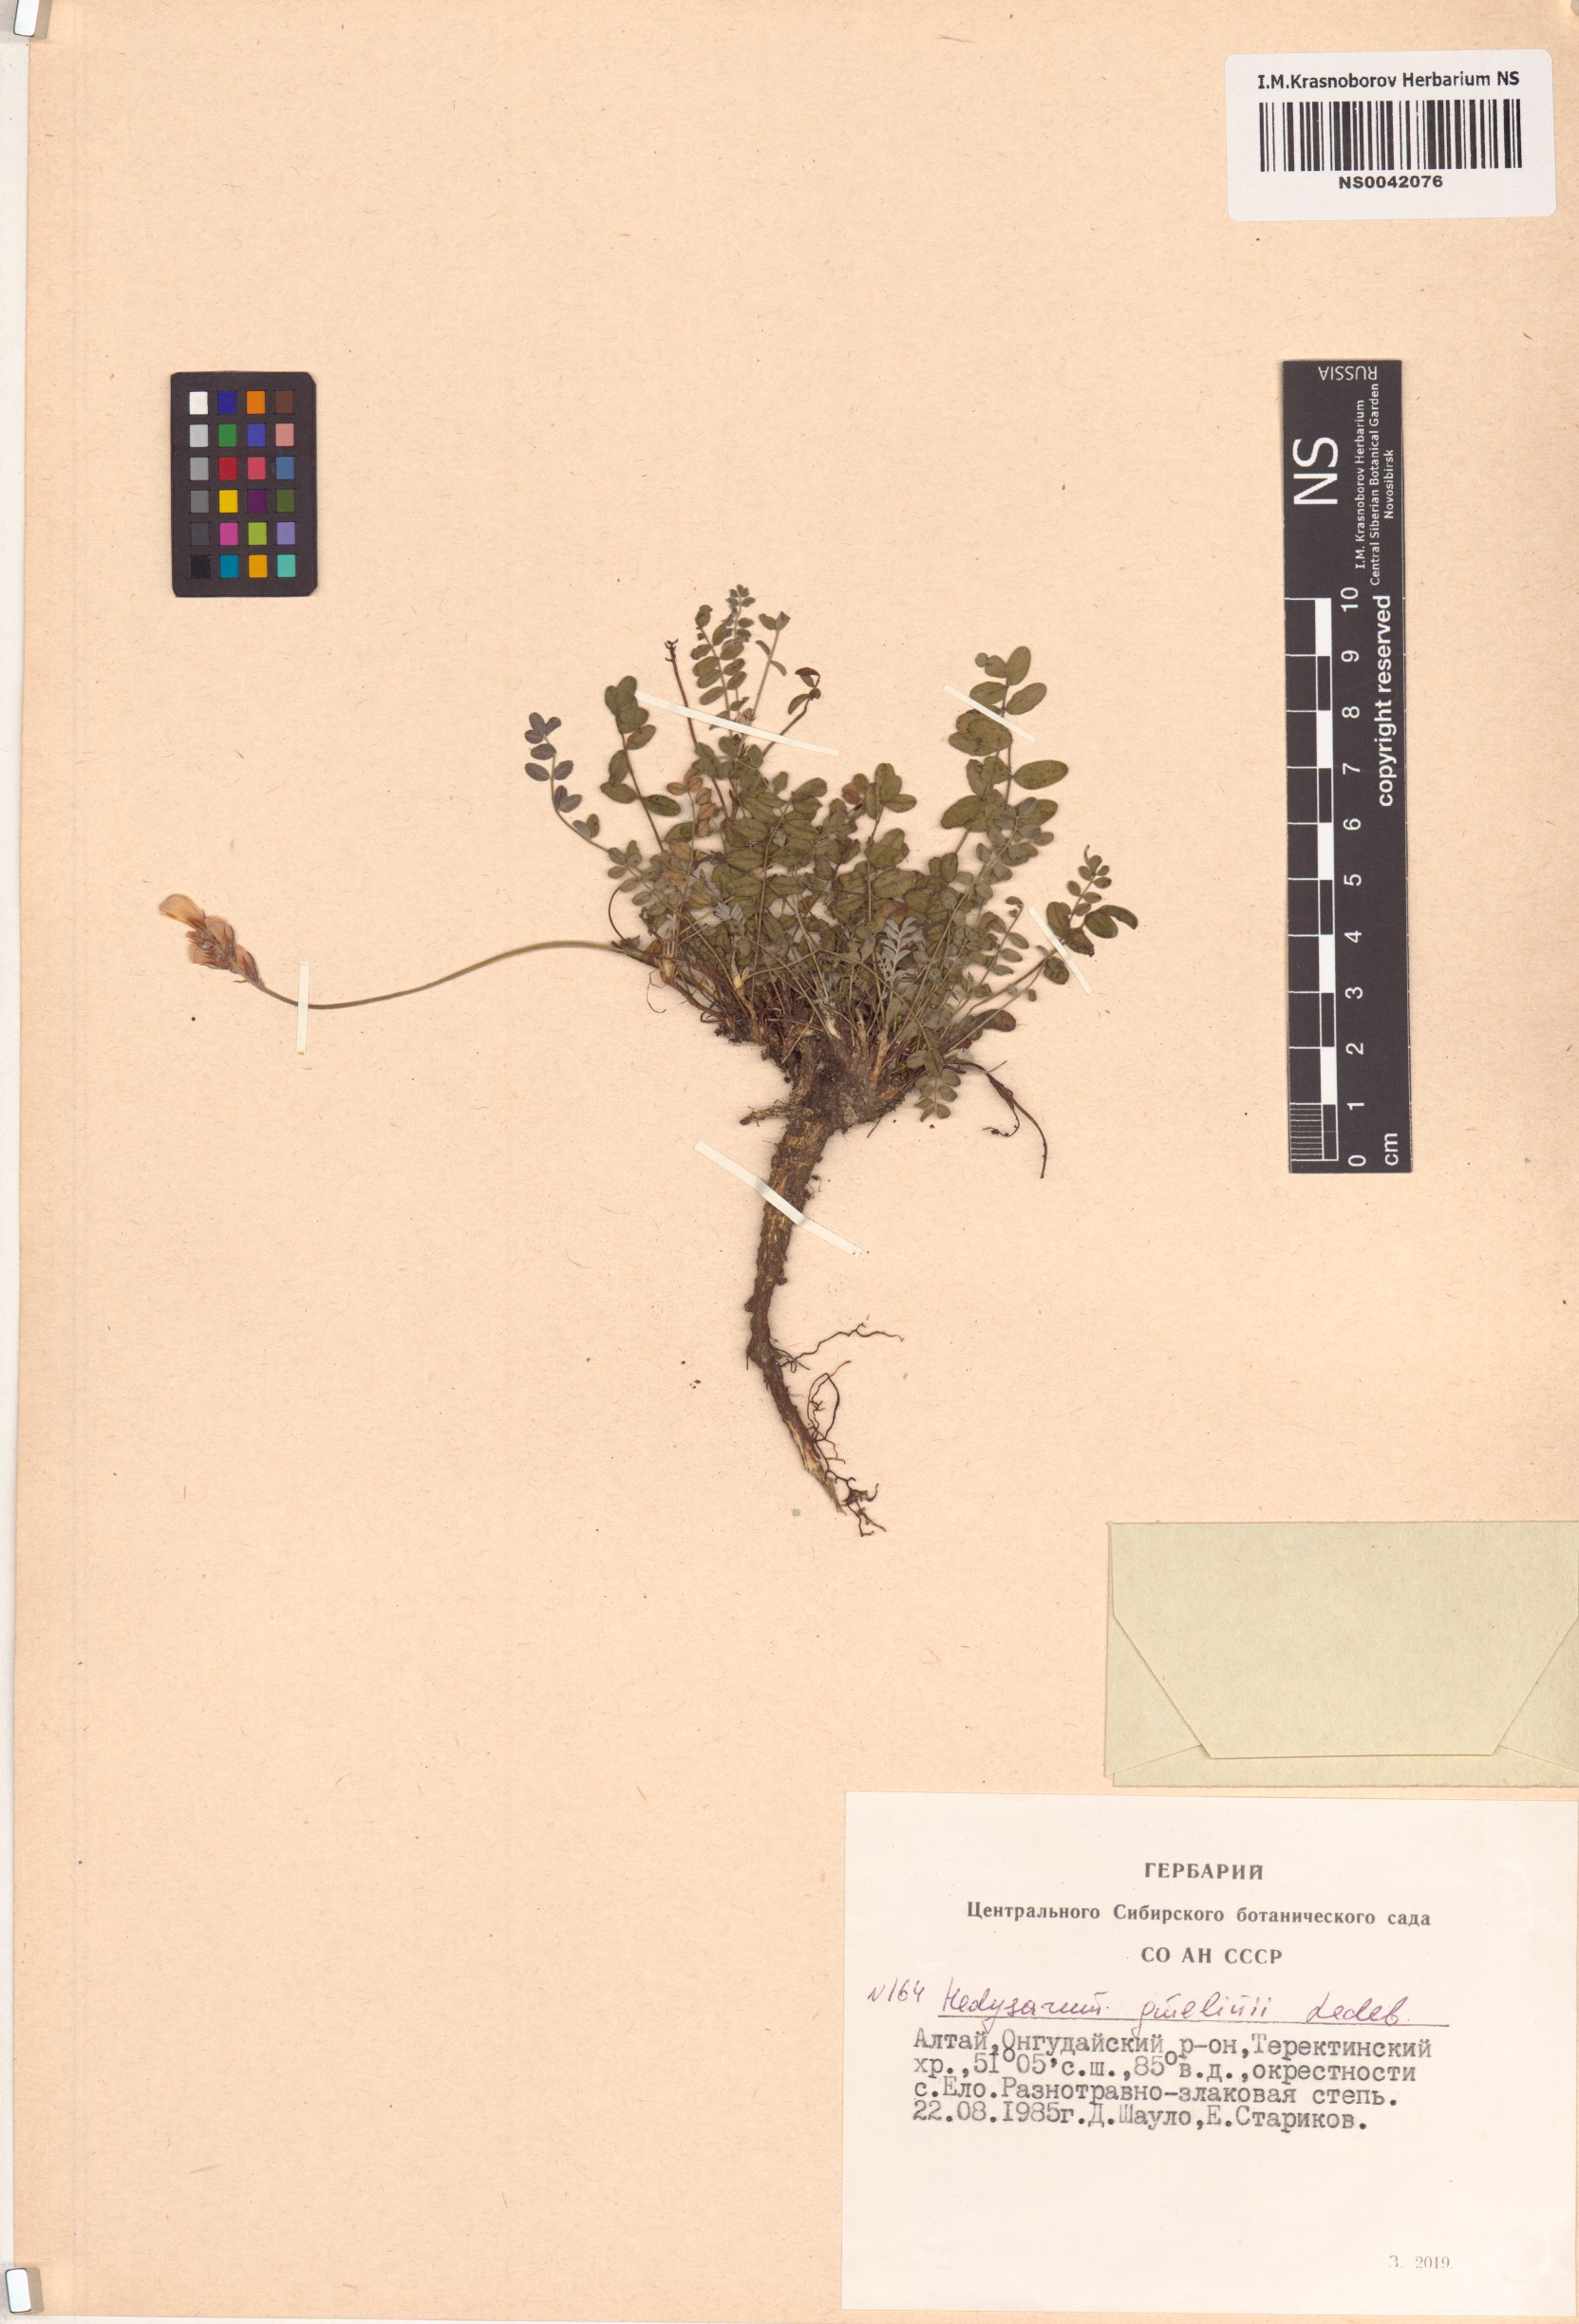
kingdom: Plantae
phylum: Tracheophyta
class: Magnoliopsida
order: Fabales
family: Fabaceae
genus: Hedysarum
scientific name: Hedysarum gmelinii
